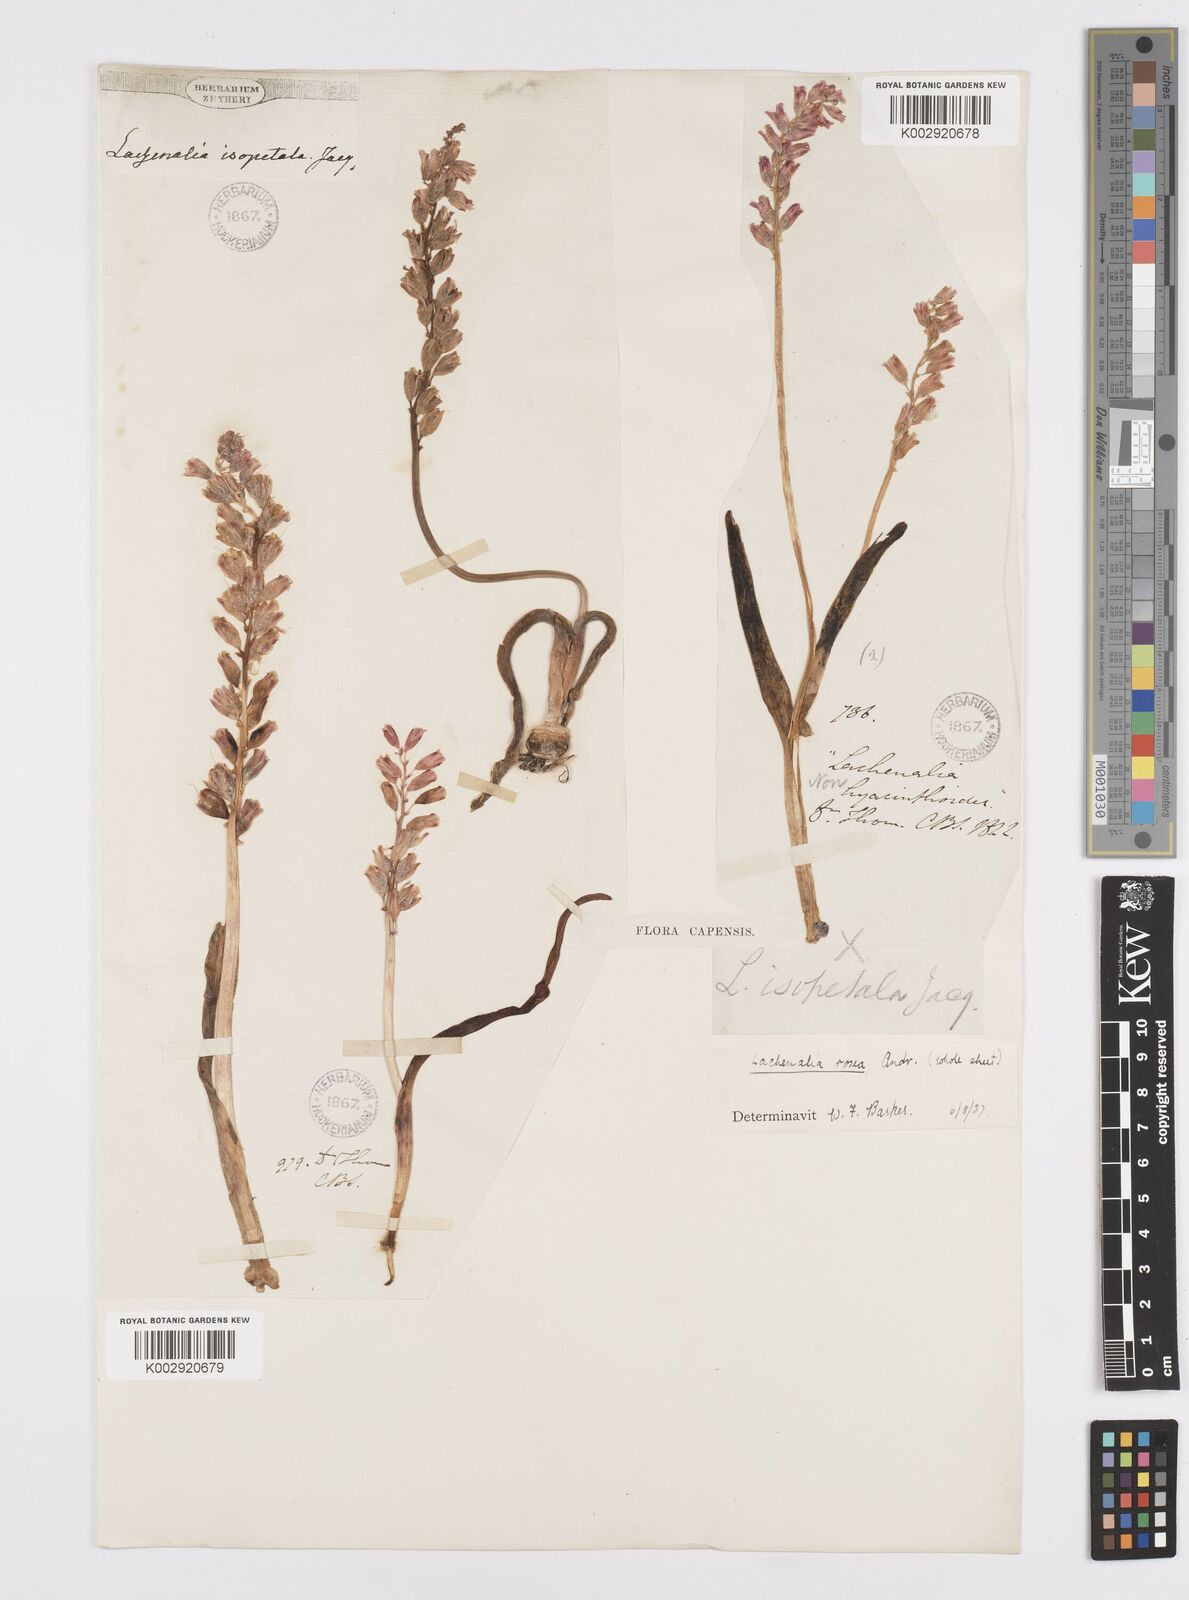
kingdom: Plantae
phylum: Tracheophyta
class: Liliopsida
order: Asparagales
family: Asparagaceae
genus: Lachenalia
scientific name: Lachenalia rosea
